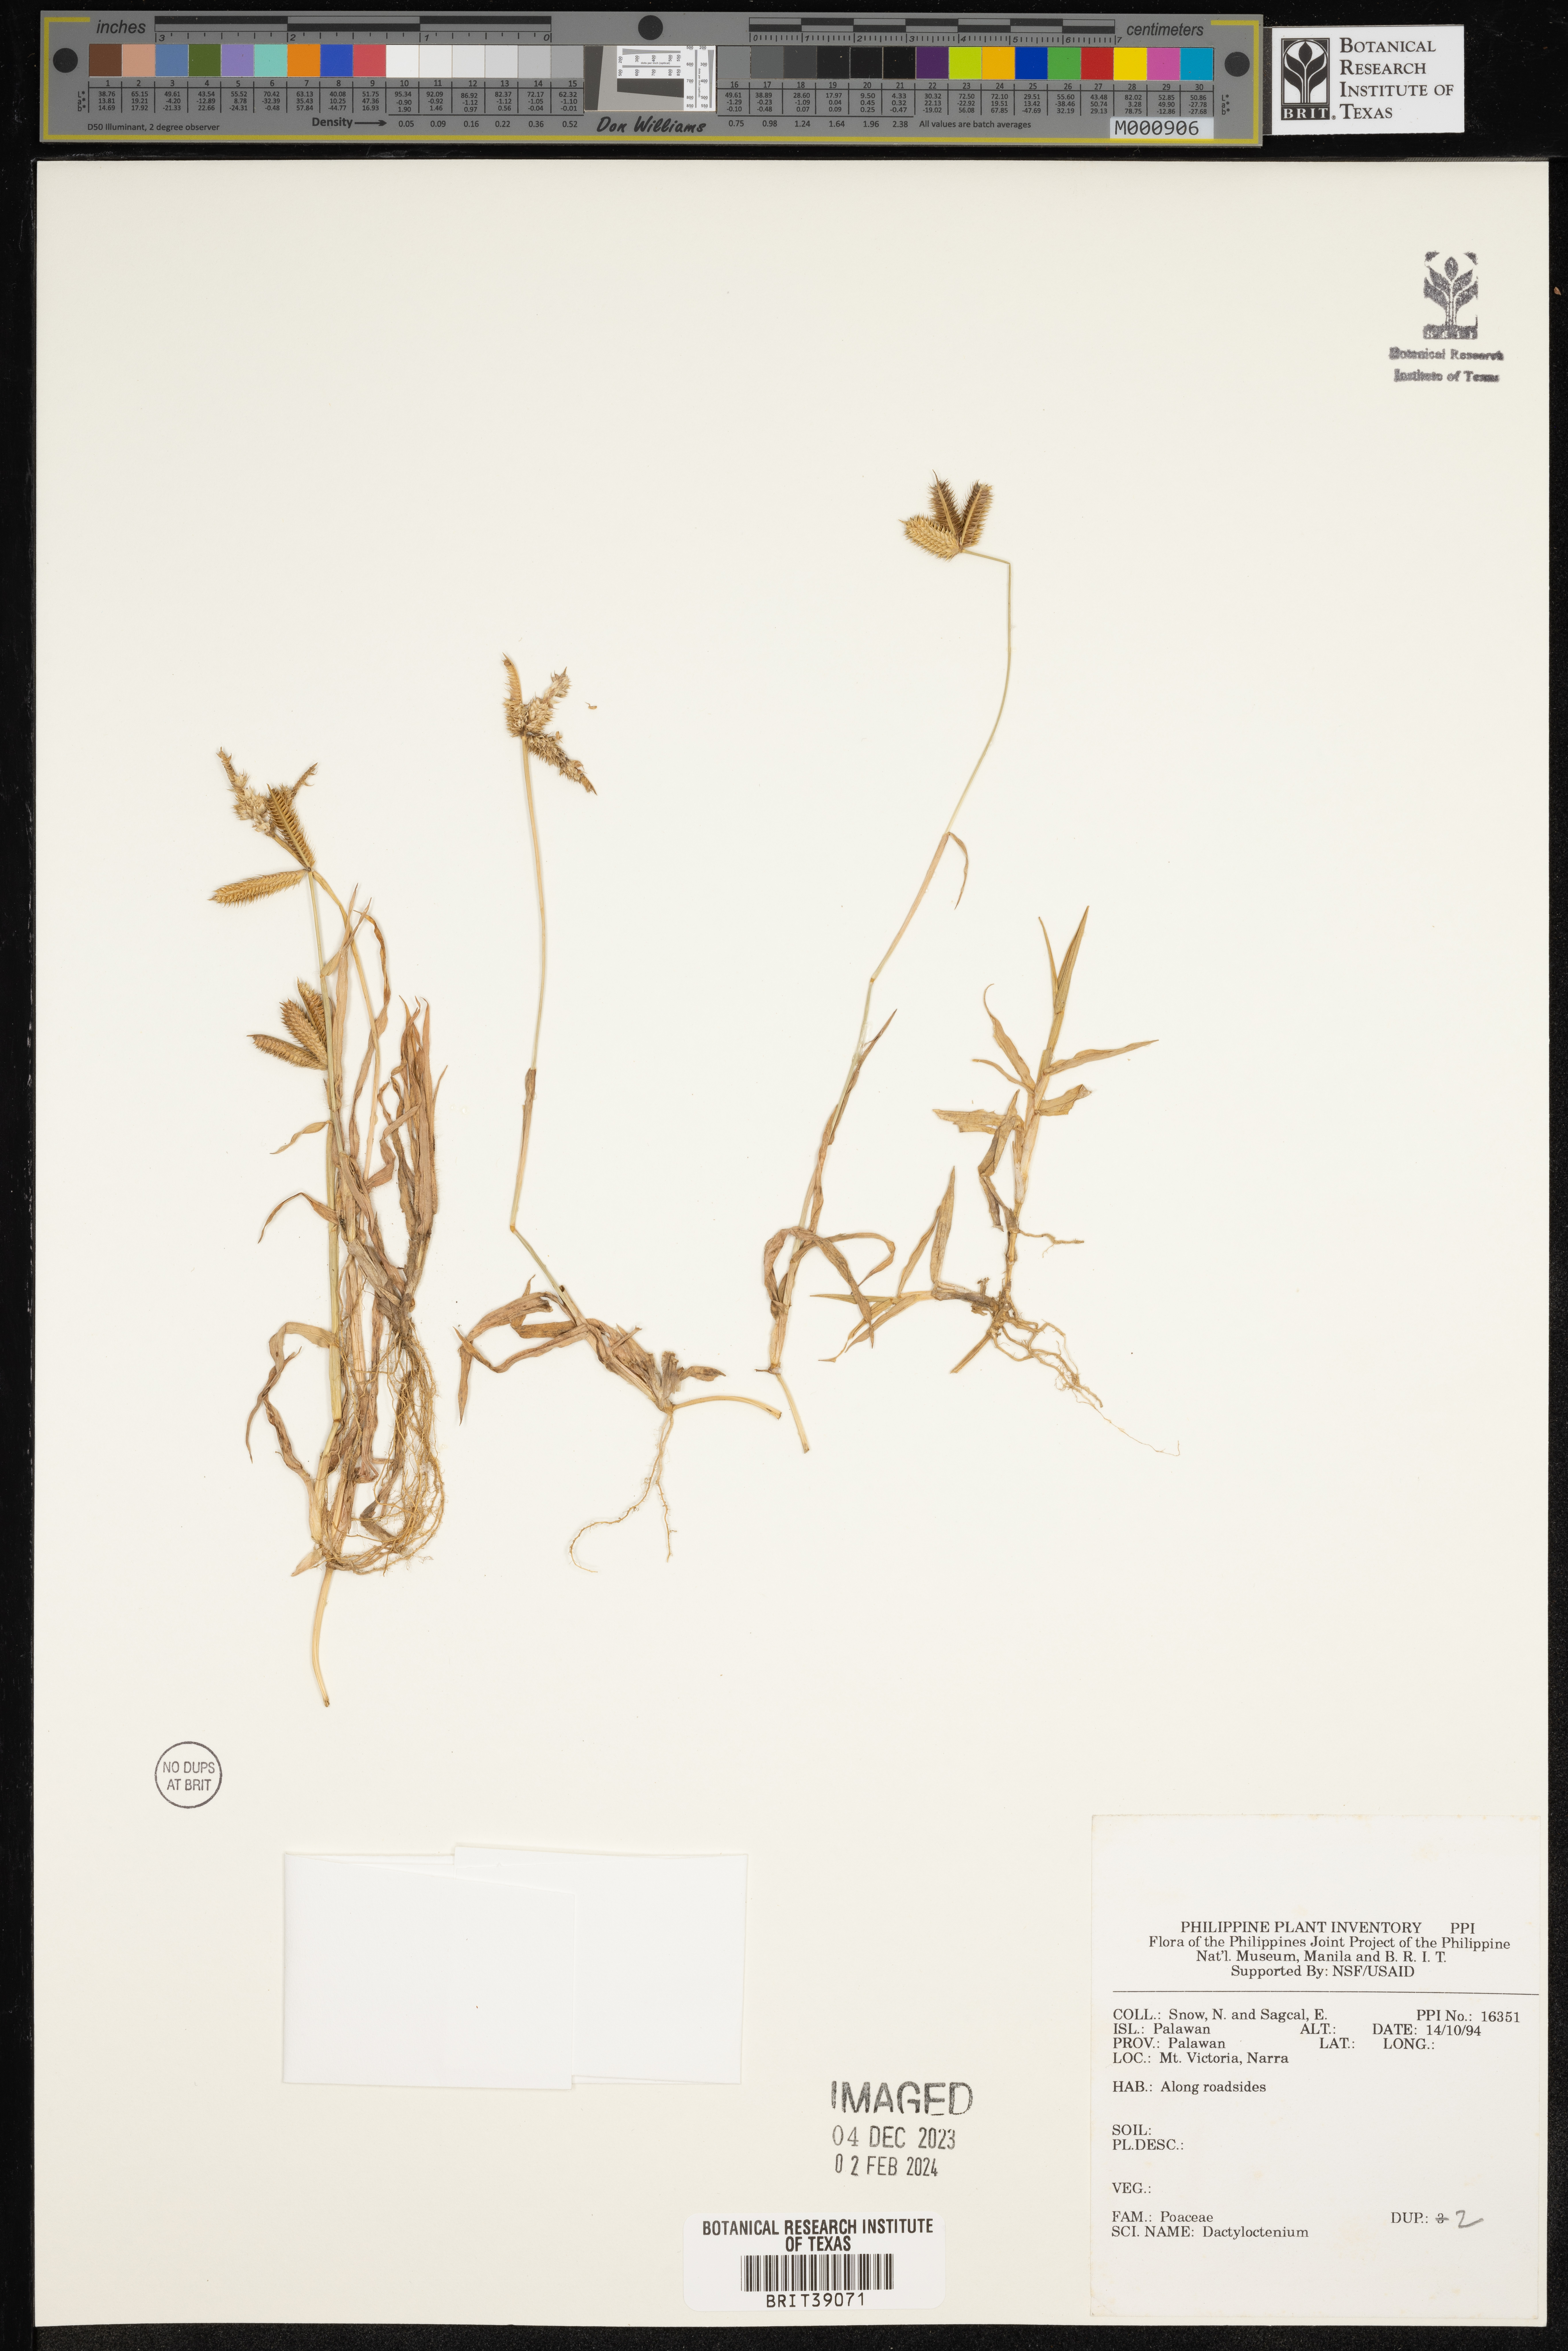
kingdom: Plantae
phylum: Tracheophyta
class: Liliopsida
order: Poales
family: Poaceae
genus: Dactyloctenium
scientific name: Dactyloctenium
